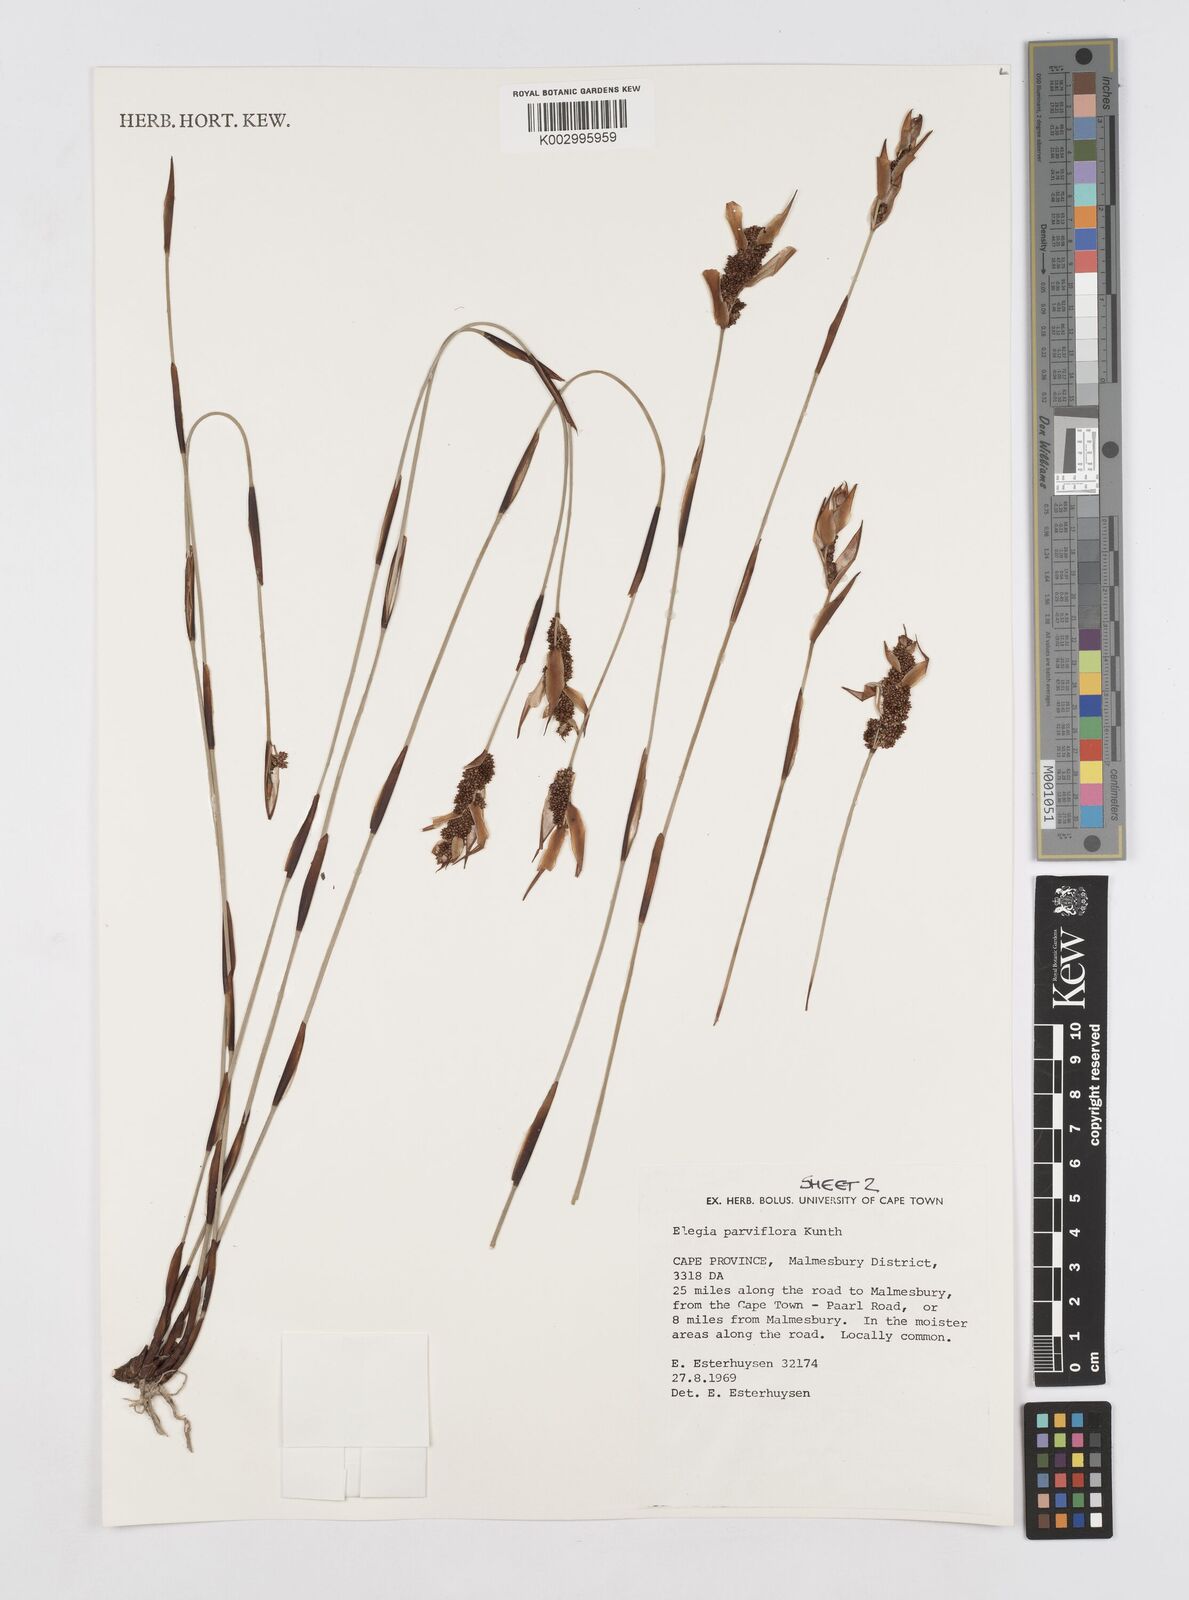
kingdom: Plantae
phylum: Tracheophyta
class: Liliopsida
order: Poales
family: Restionaceae
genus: Cannomois
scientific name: Cannomois parviflora
